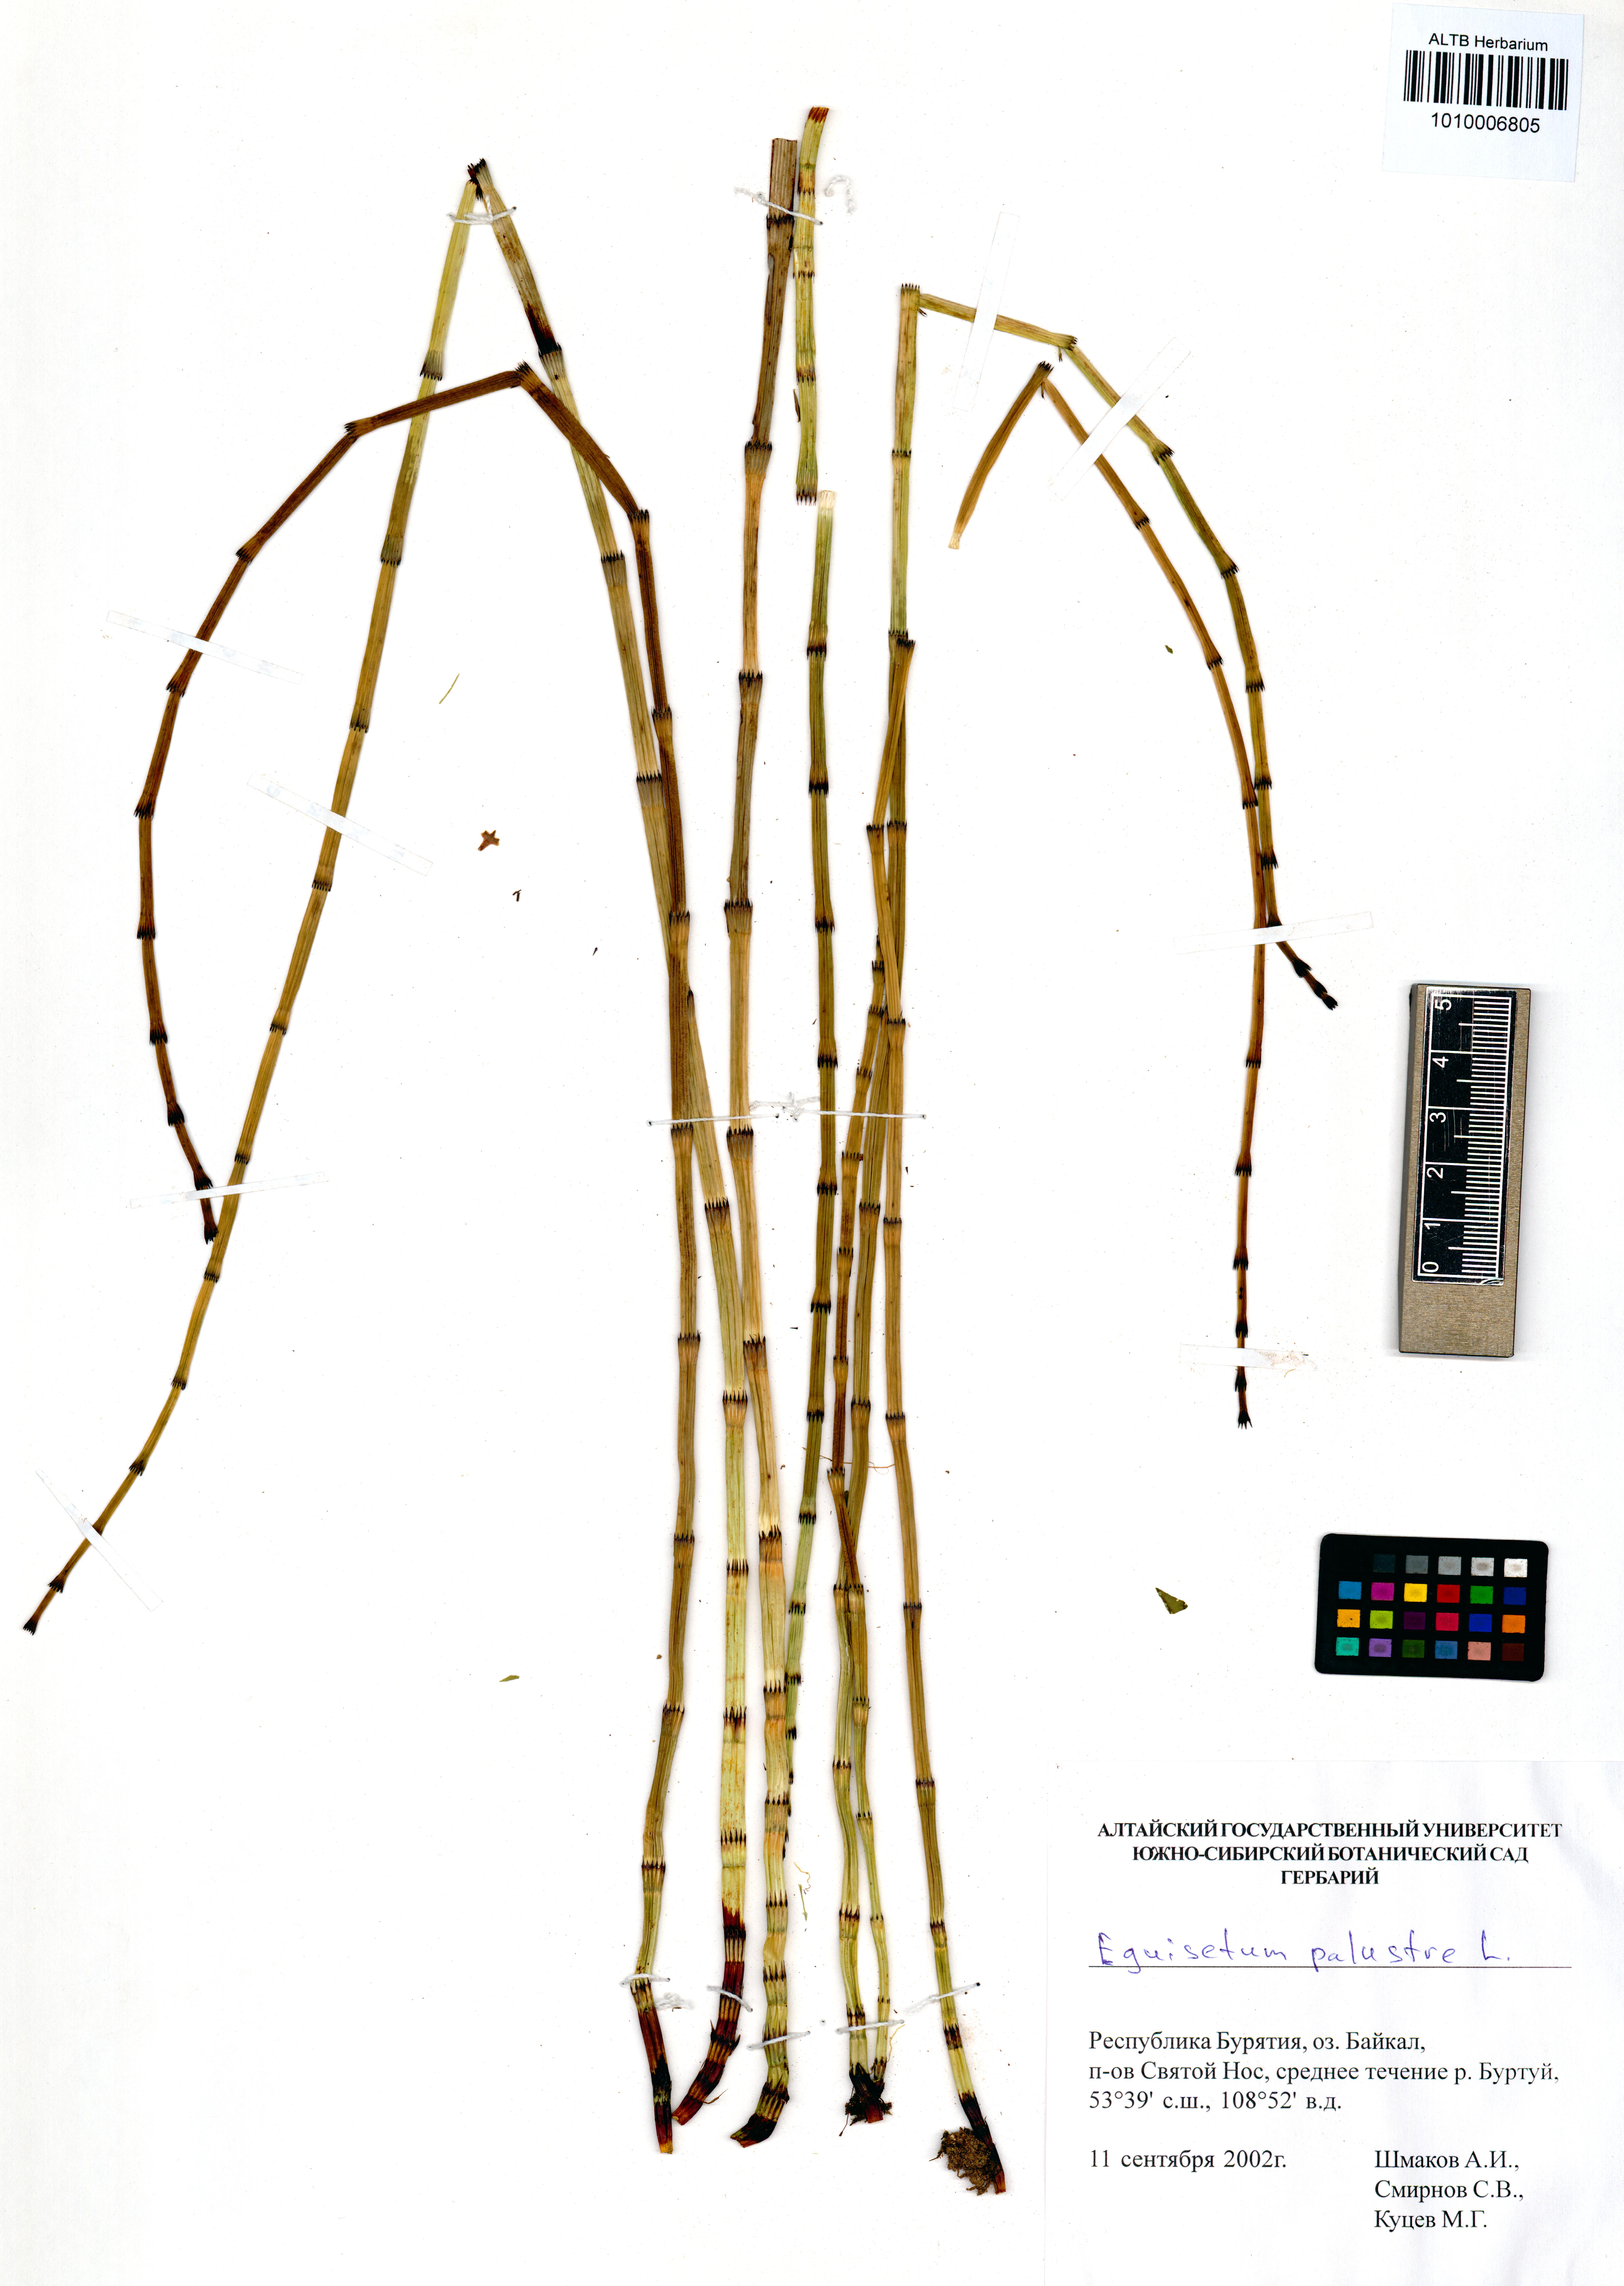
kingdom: Plantae
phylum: Tracheophyta
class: Polypodiopsida
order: Equisetales
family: Equisetaceae
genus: Equisetum
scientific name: Equisetum palustre
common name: Marsh horsetail
